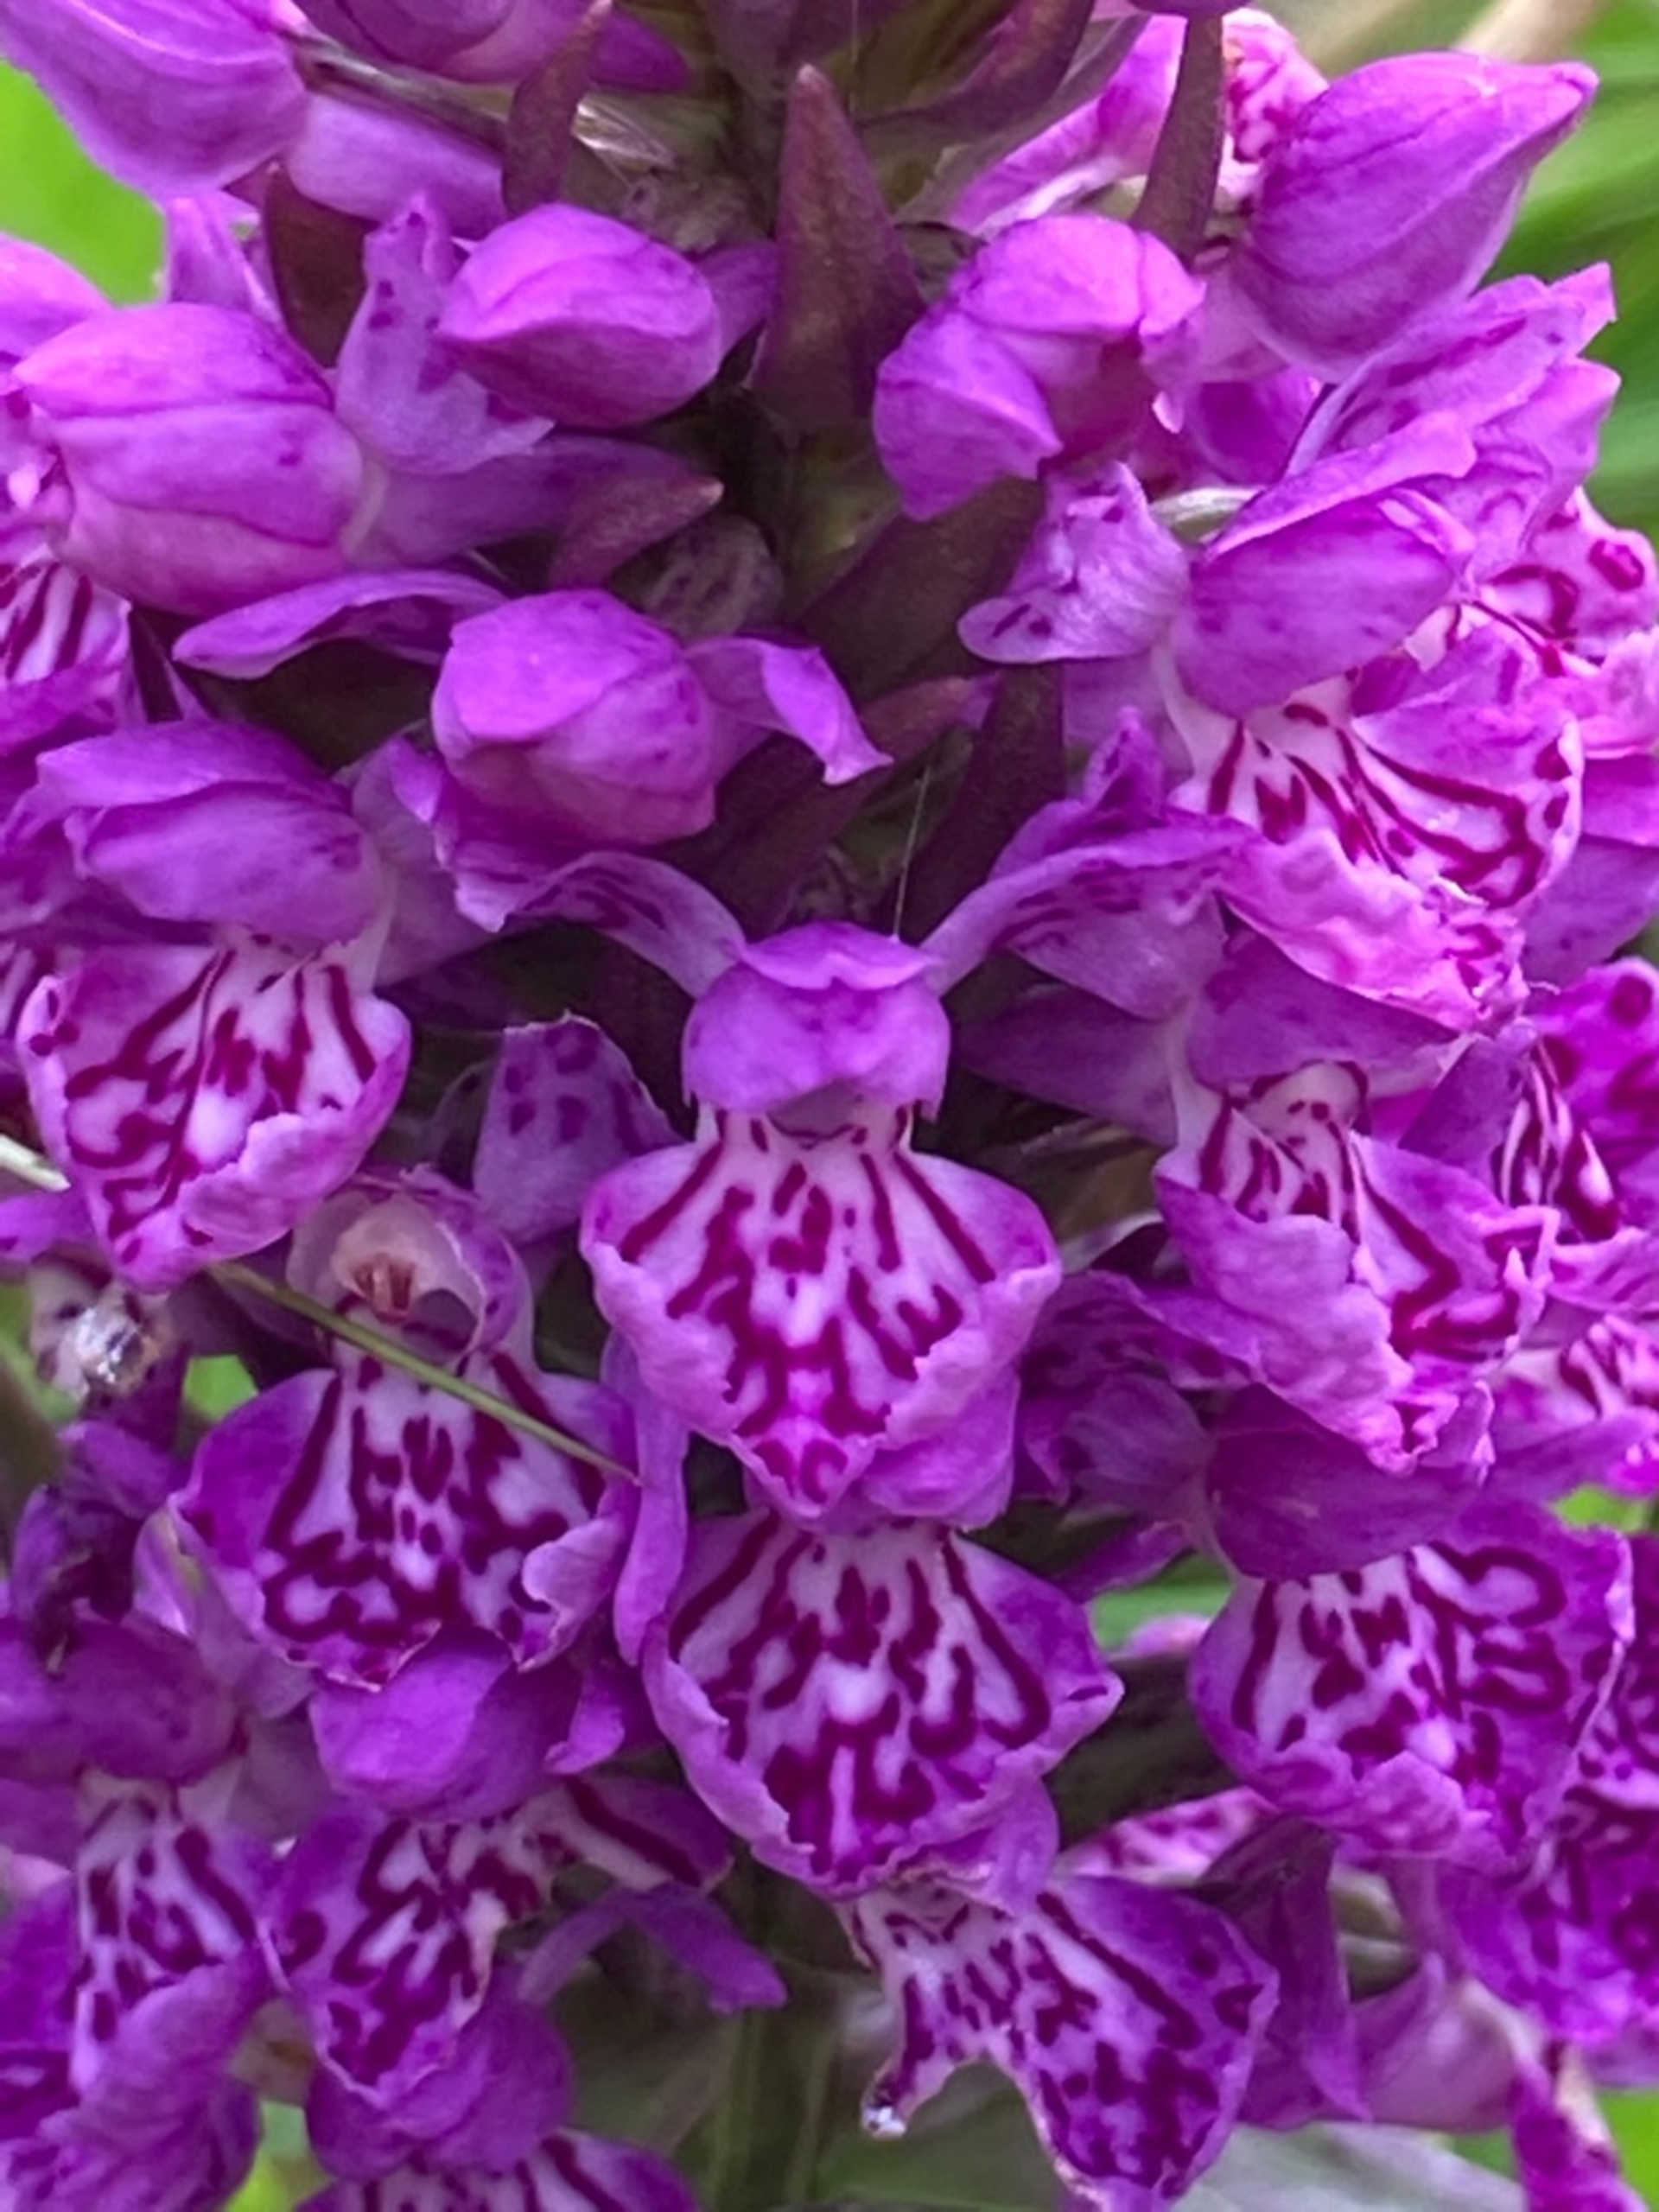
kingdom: Plantae
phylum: Tracheophyta
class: Liliopsida
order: Asparagales
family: Orchidaceae
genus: Dactylorhiza
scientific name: Dactylorhiza majalis
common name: Vendsyssel-gøgeurt
